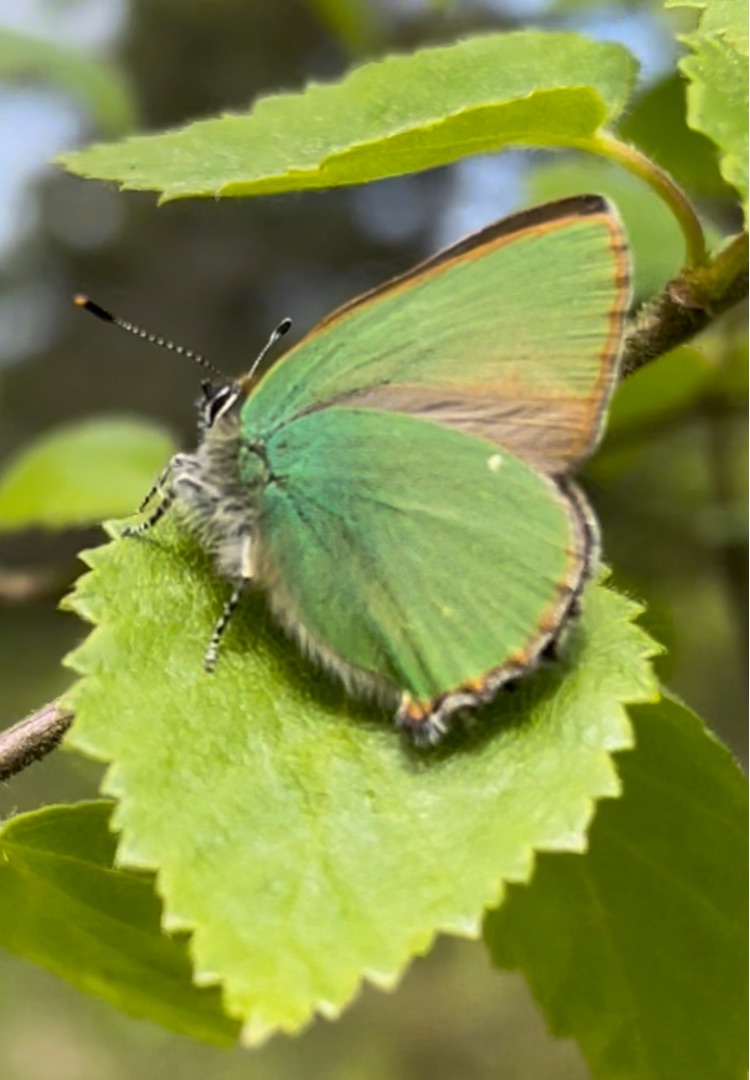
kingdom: Animalia
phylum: Arthropoda
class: Insecta
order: Lepidoptera
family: Lycaenidae
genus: Callophrys
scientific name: Callophrys rubi
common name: Grøn busksommerfugl
